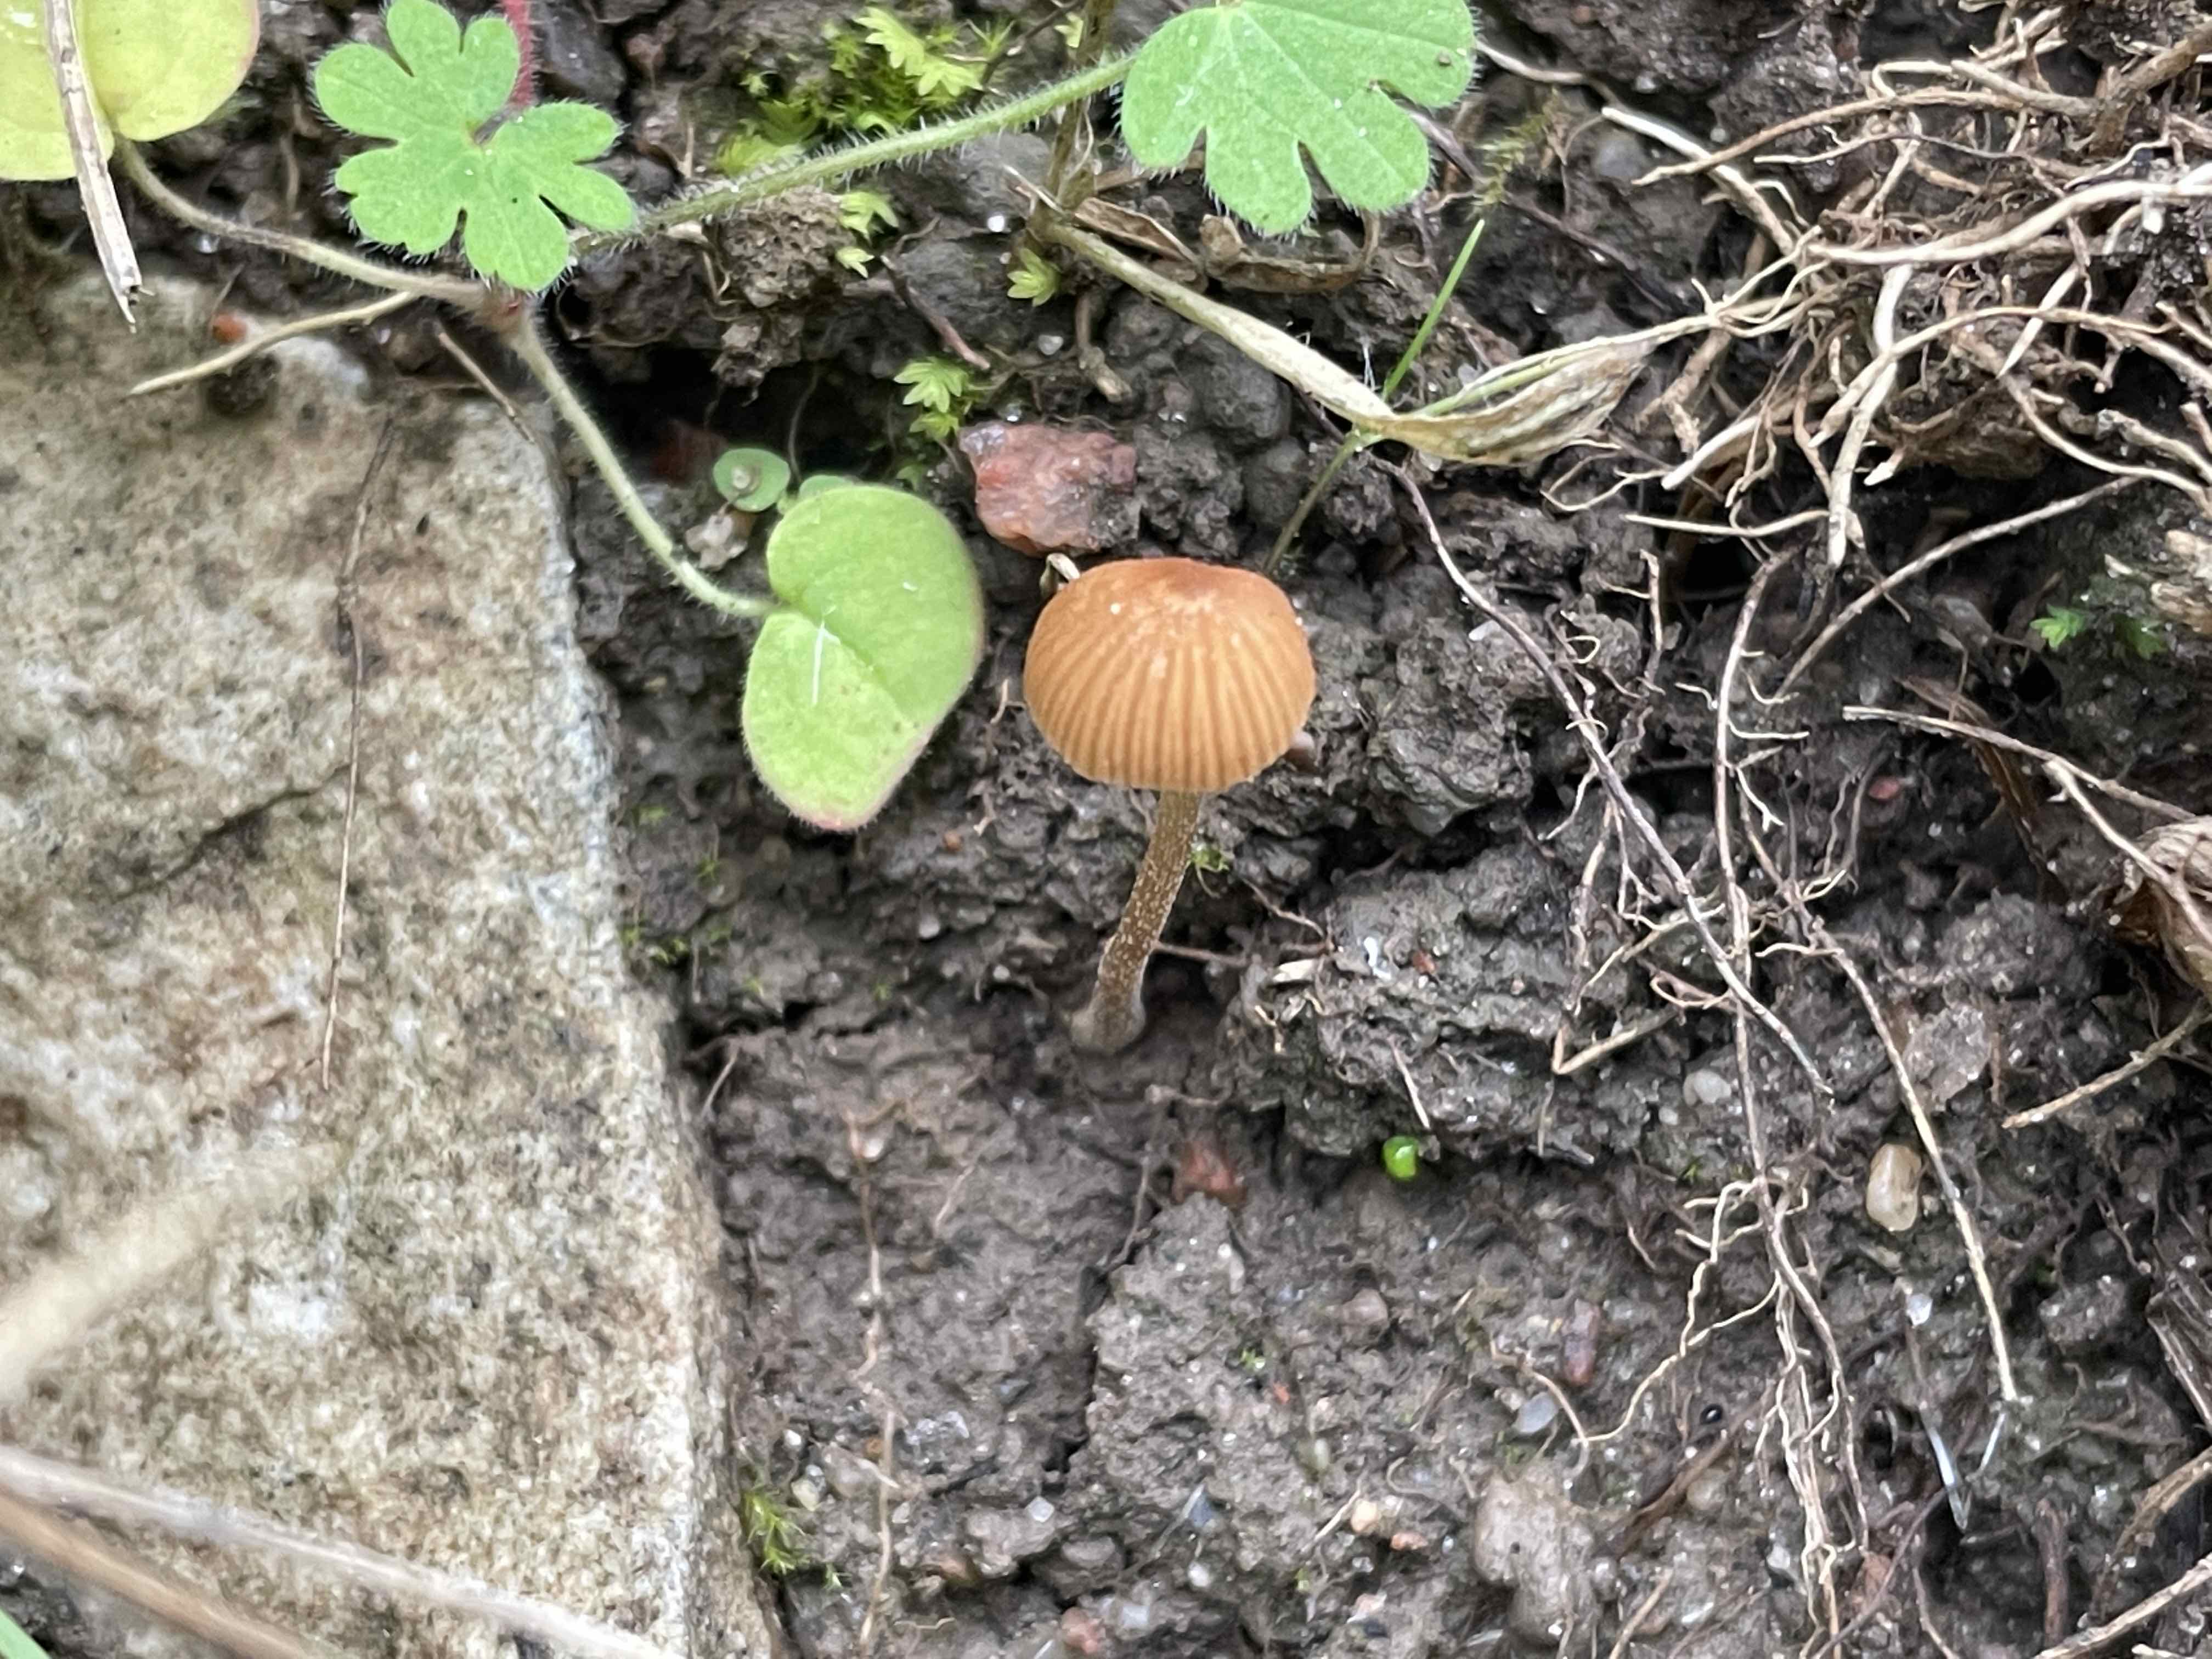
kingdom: Fungi
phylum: Basidiomycota
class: Agaricomycetes
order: Agaricales
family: Hymenogastraceae
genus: Galerina
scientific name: Galerina
